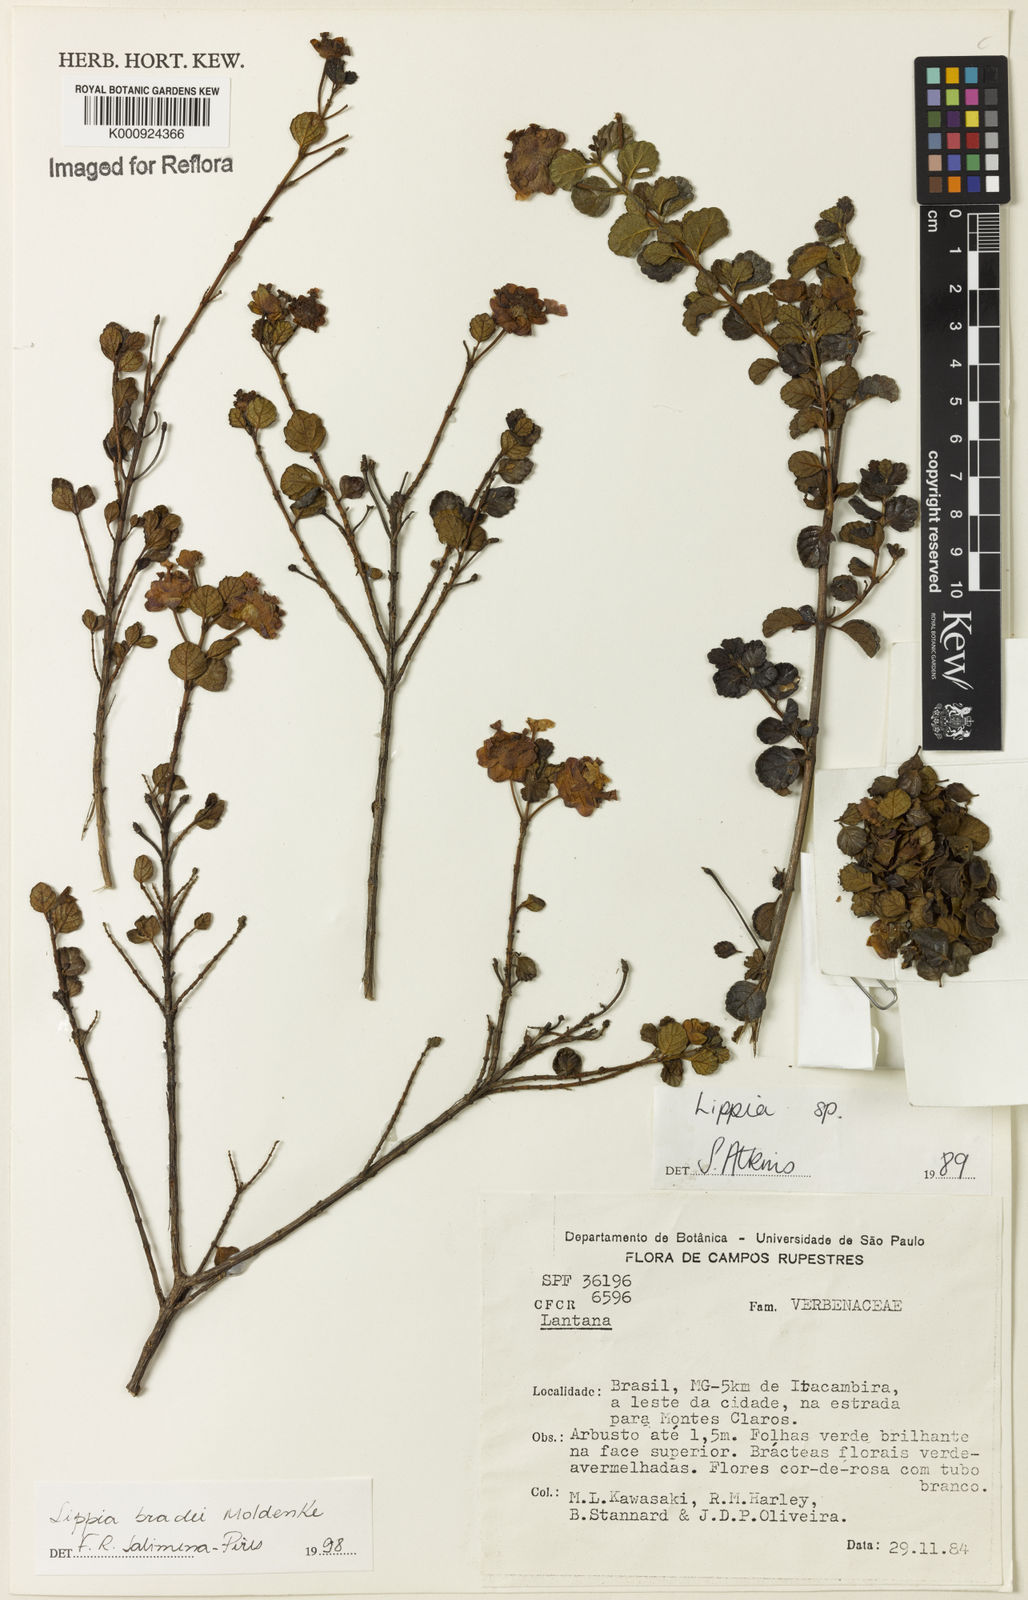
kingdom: Plantae
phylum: Tracheophyta
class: Magnoliopsida
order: Lamiales
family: Verbenaceae
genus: Lippia
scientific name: Lippia bradei
